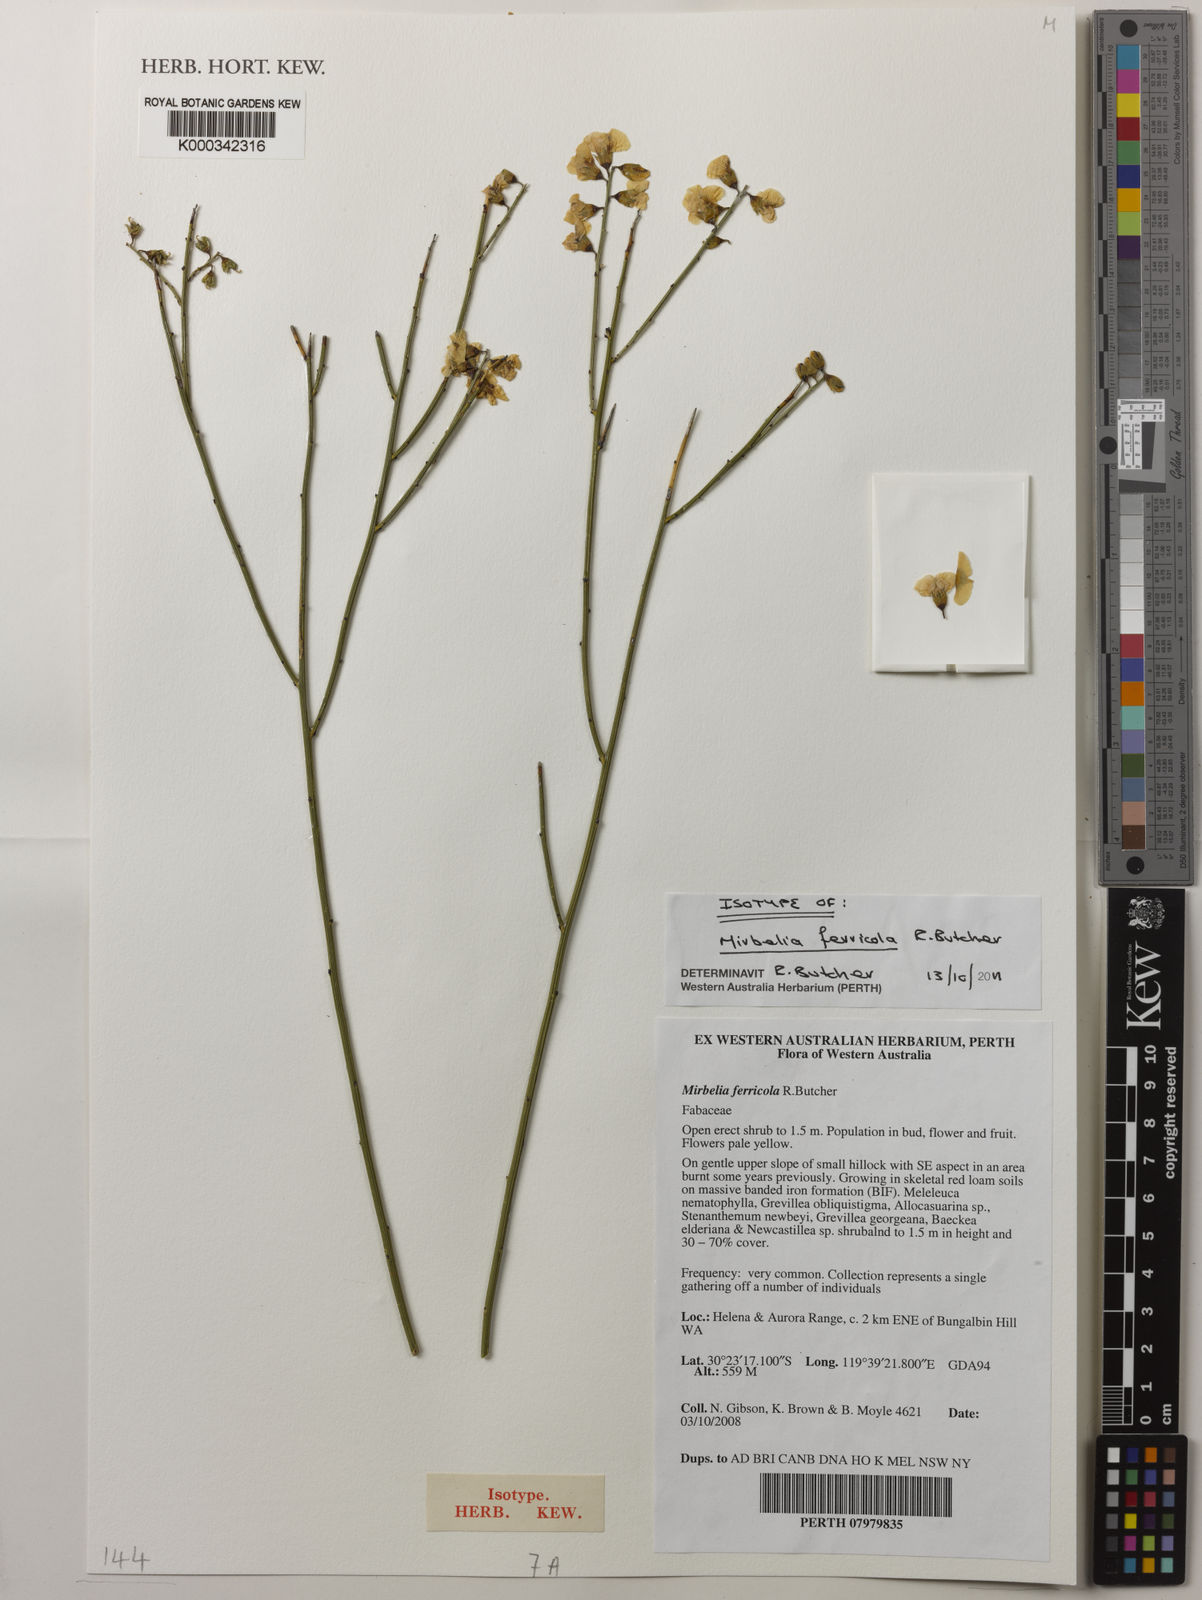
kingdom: Plantae
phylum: Tracheophyta
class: Magnoliopsida
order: Fabales
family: Fabaceae
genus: Mirbelia
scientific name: Mirbelia ferricola
